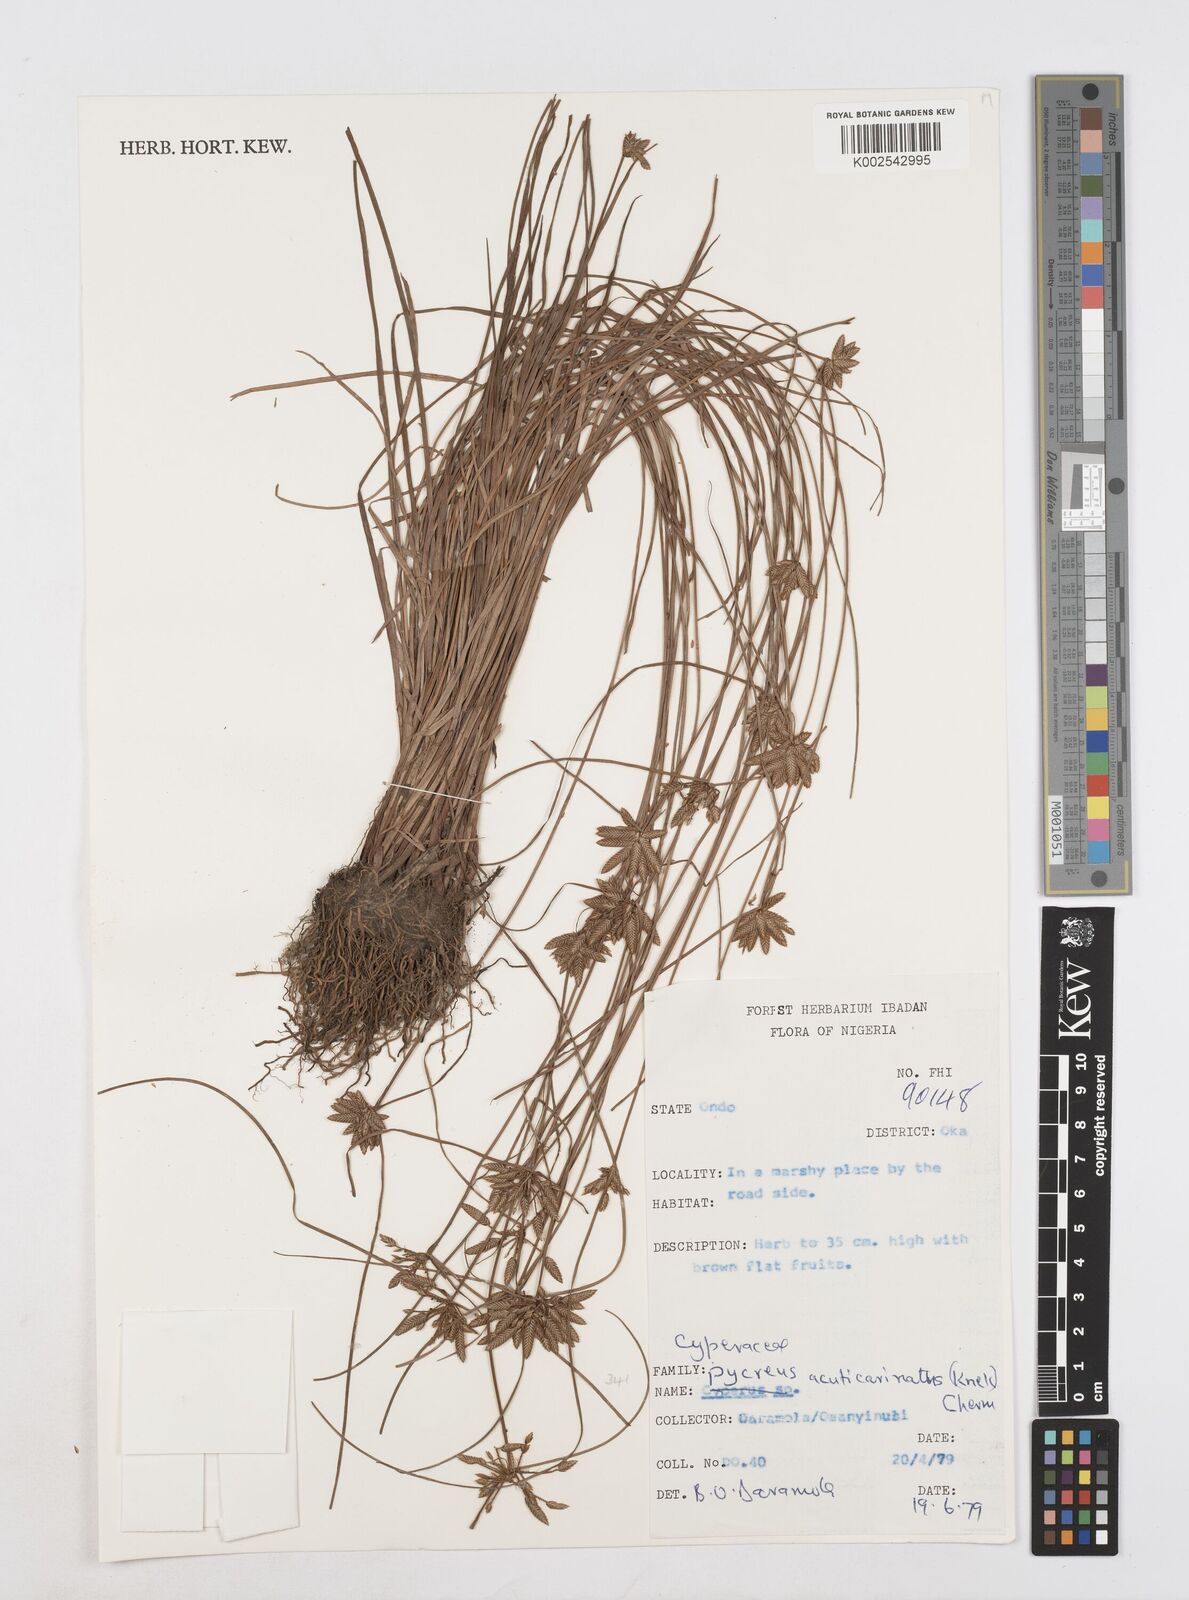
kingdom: Plantae
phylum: Tracheophyta
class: Liliopsida
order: Poales
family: Cyperaceae
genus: Cyperus
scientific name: Cyperus flavescens
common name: Yellow galingale
